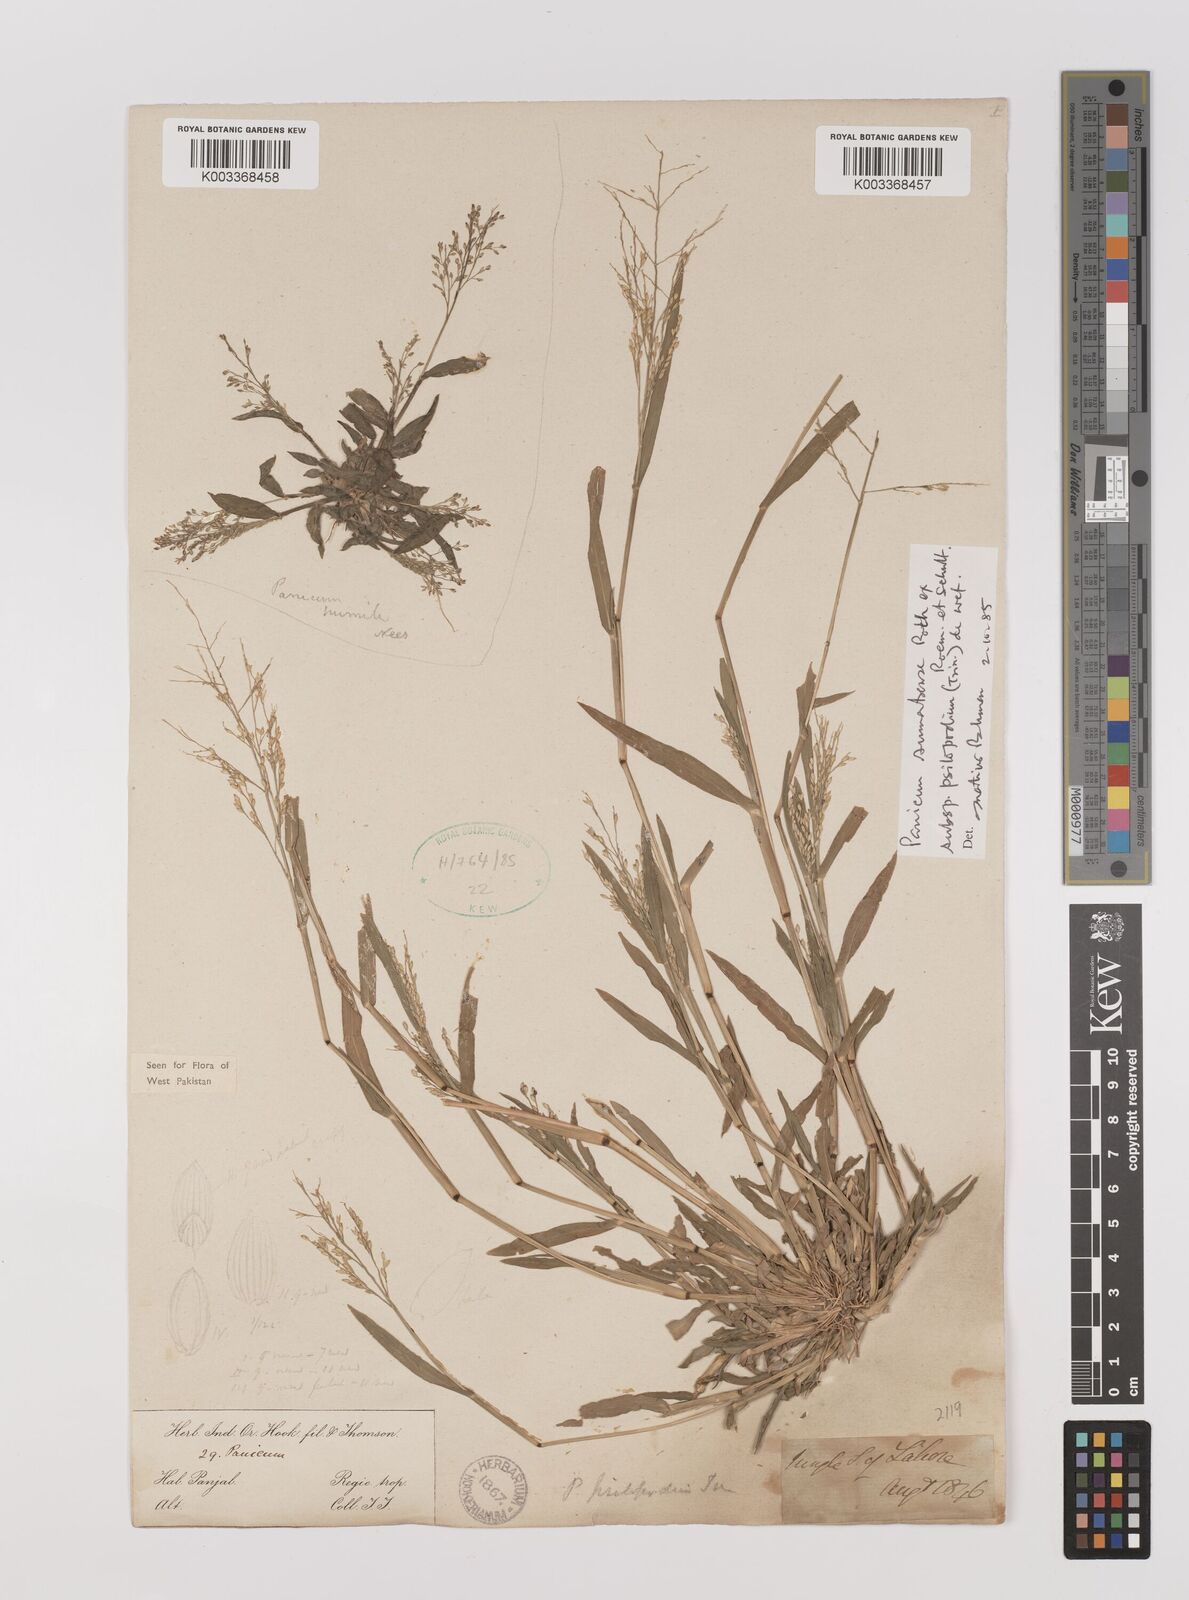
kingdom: Plantae
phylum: Tracheophyta
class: Liliopsida
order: Poales
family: Poaceae
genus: Panicum
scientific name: Panicum sumatrense
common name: Little millet
